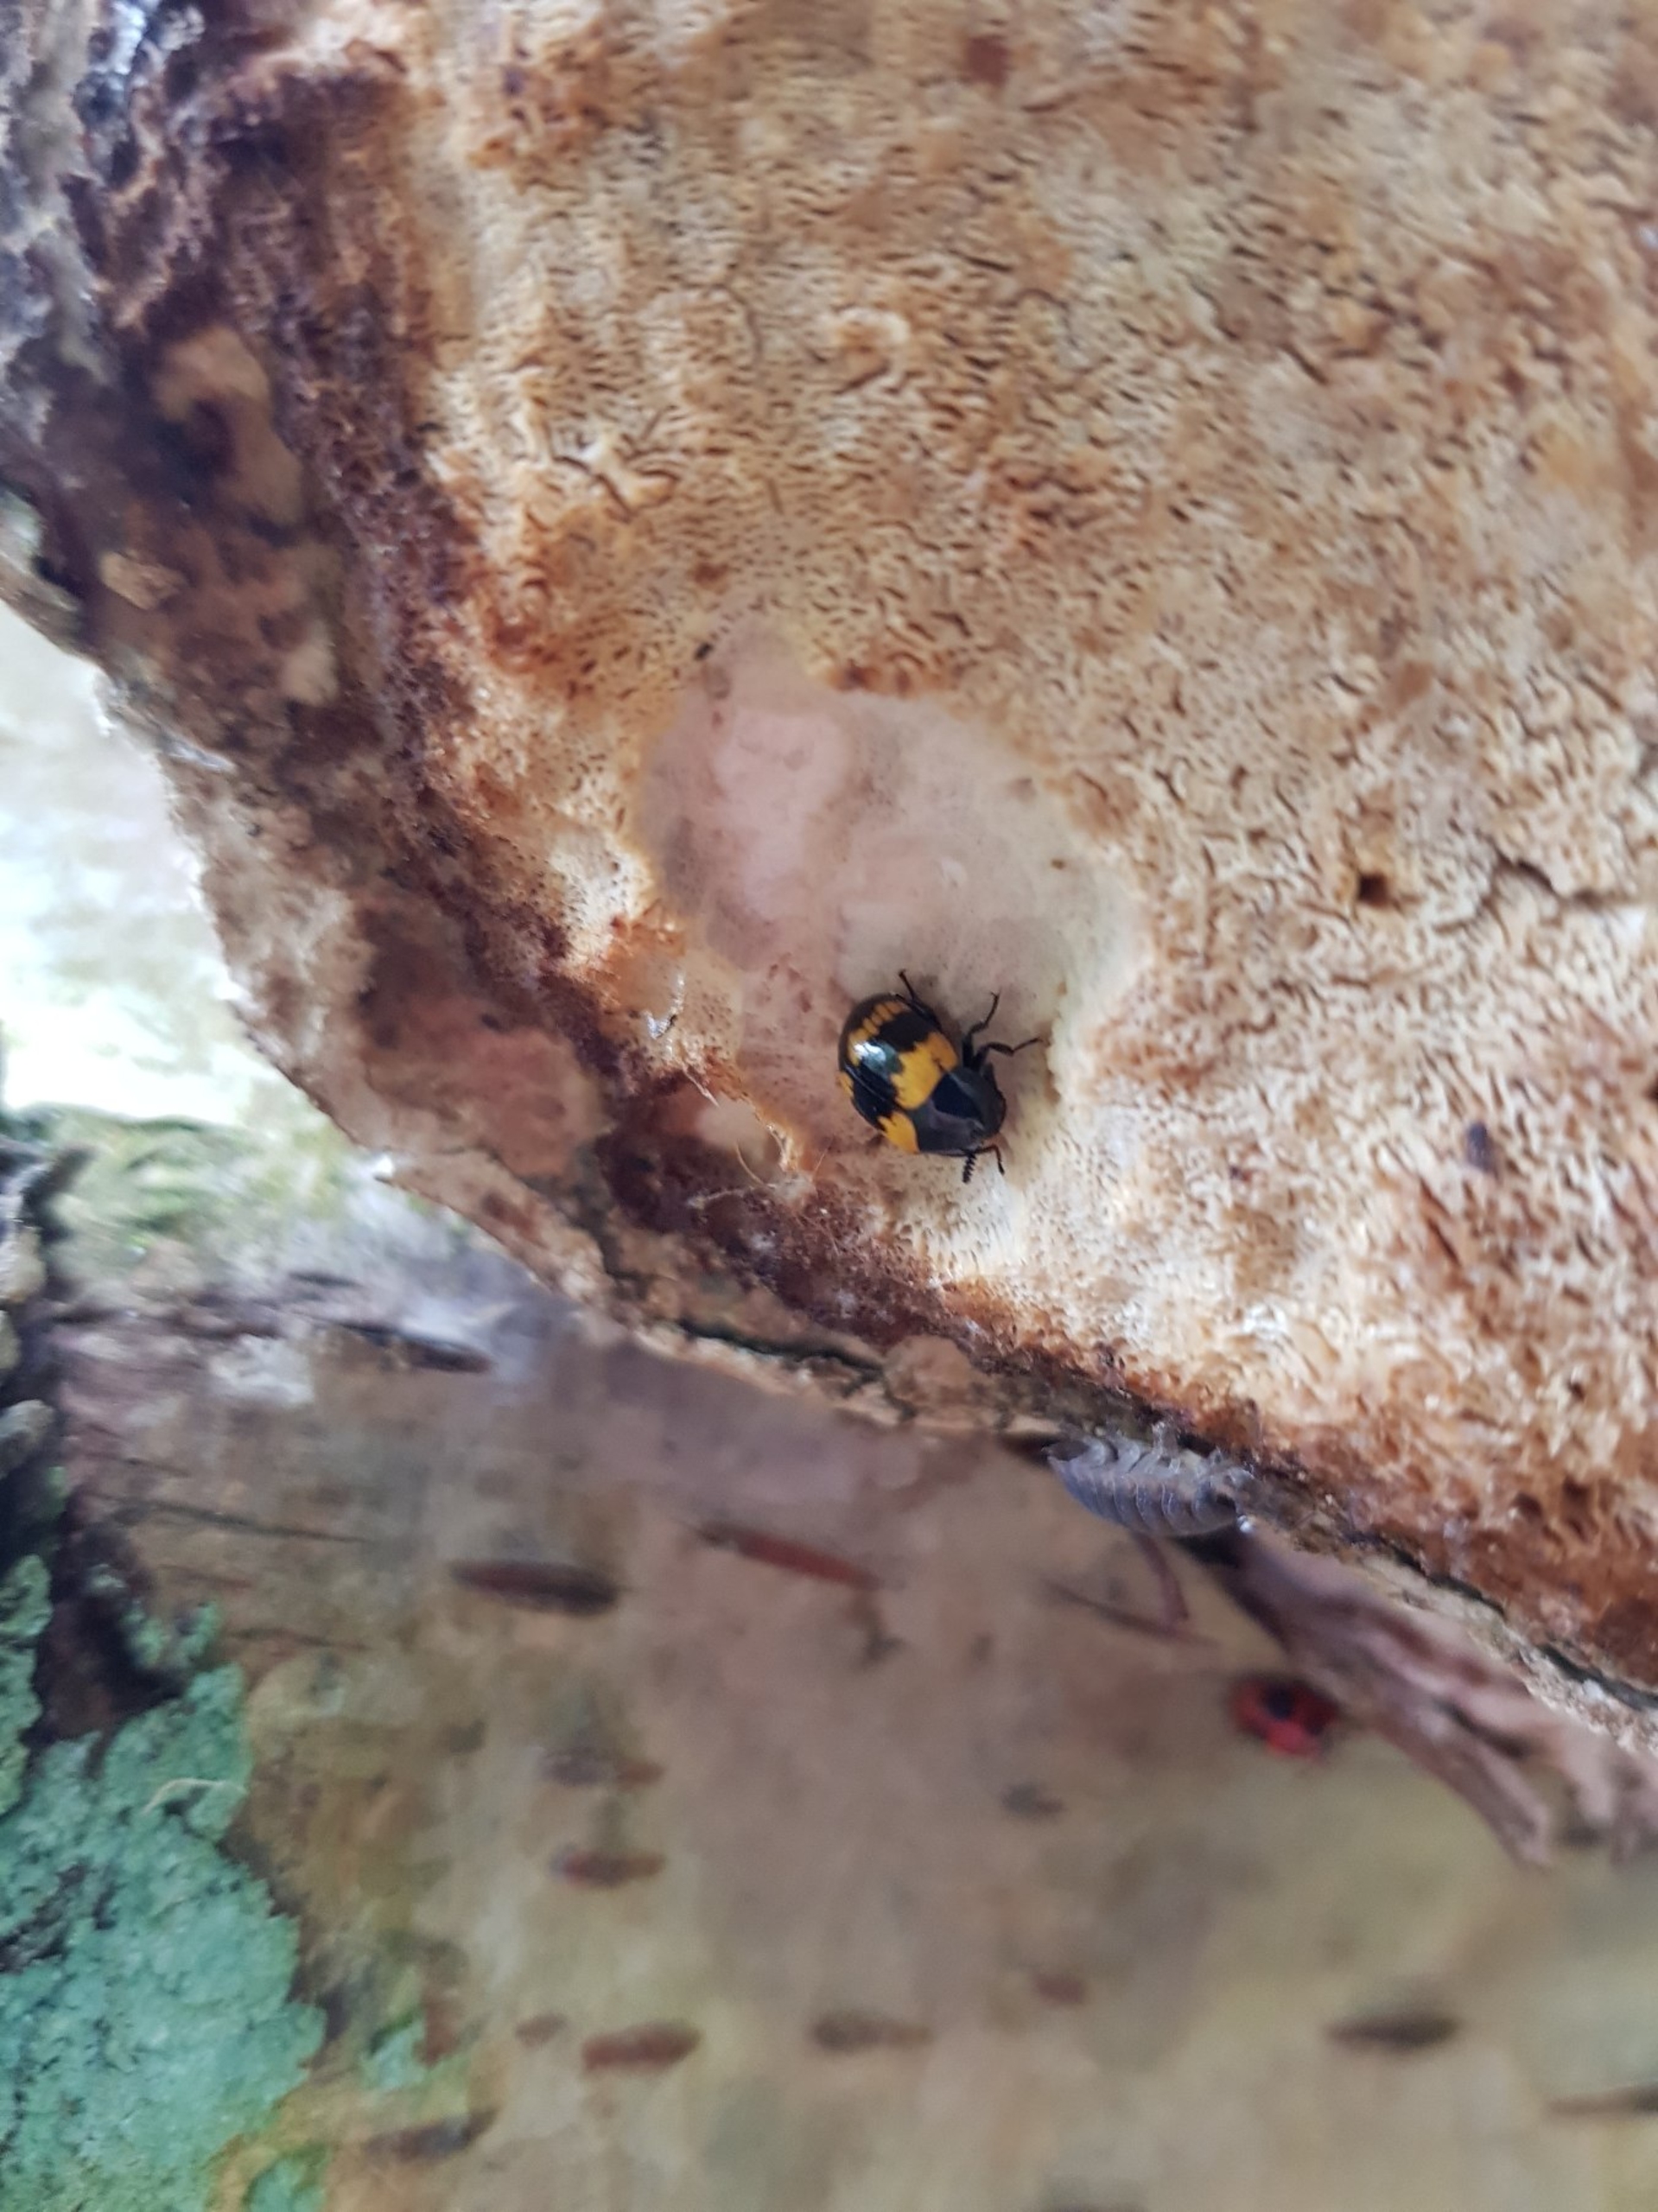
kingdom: Animalia
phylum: Arthropoda
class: Insecta
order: Coleoptera
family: Tenebrionidae
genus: Diaperis
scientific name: Diaperis boleti
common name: Tigerskyggebille
